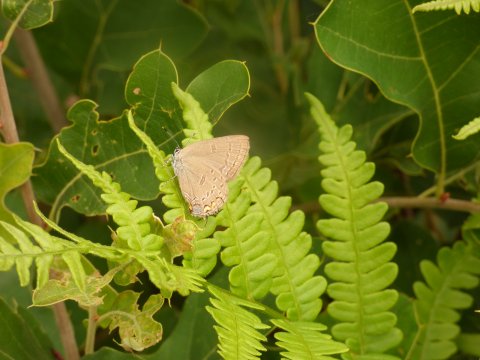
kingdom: Animalia
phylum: Arthropoda
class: Insecta
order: Lepidoptera
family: Lycaenidae
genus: Satyrium
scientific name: Satyrium edwardsii
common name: Edwards' Hairstreak
